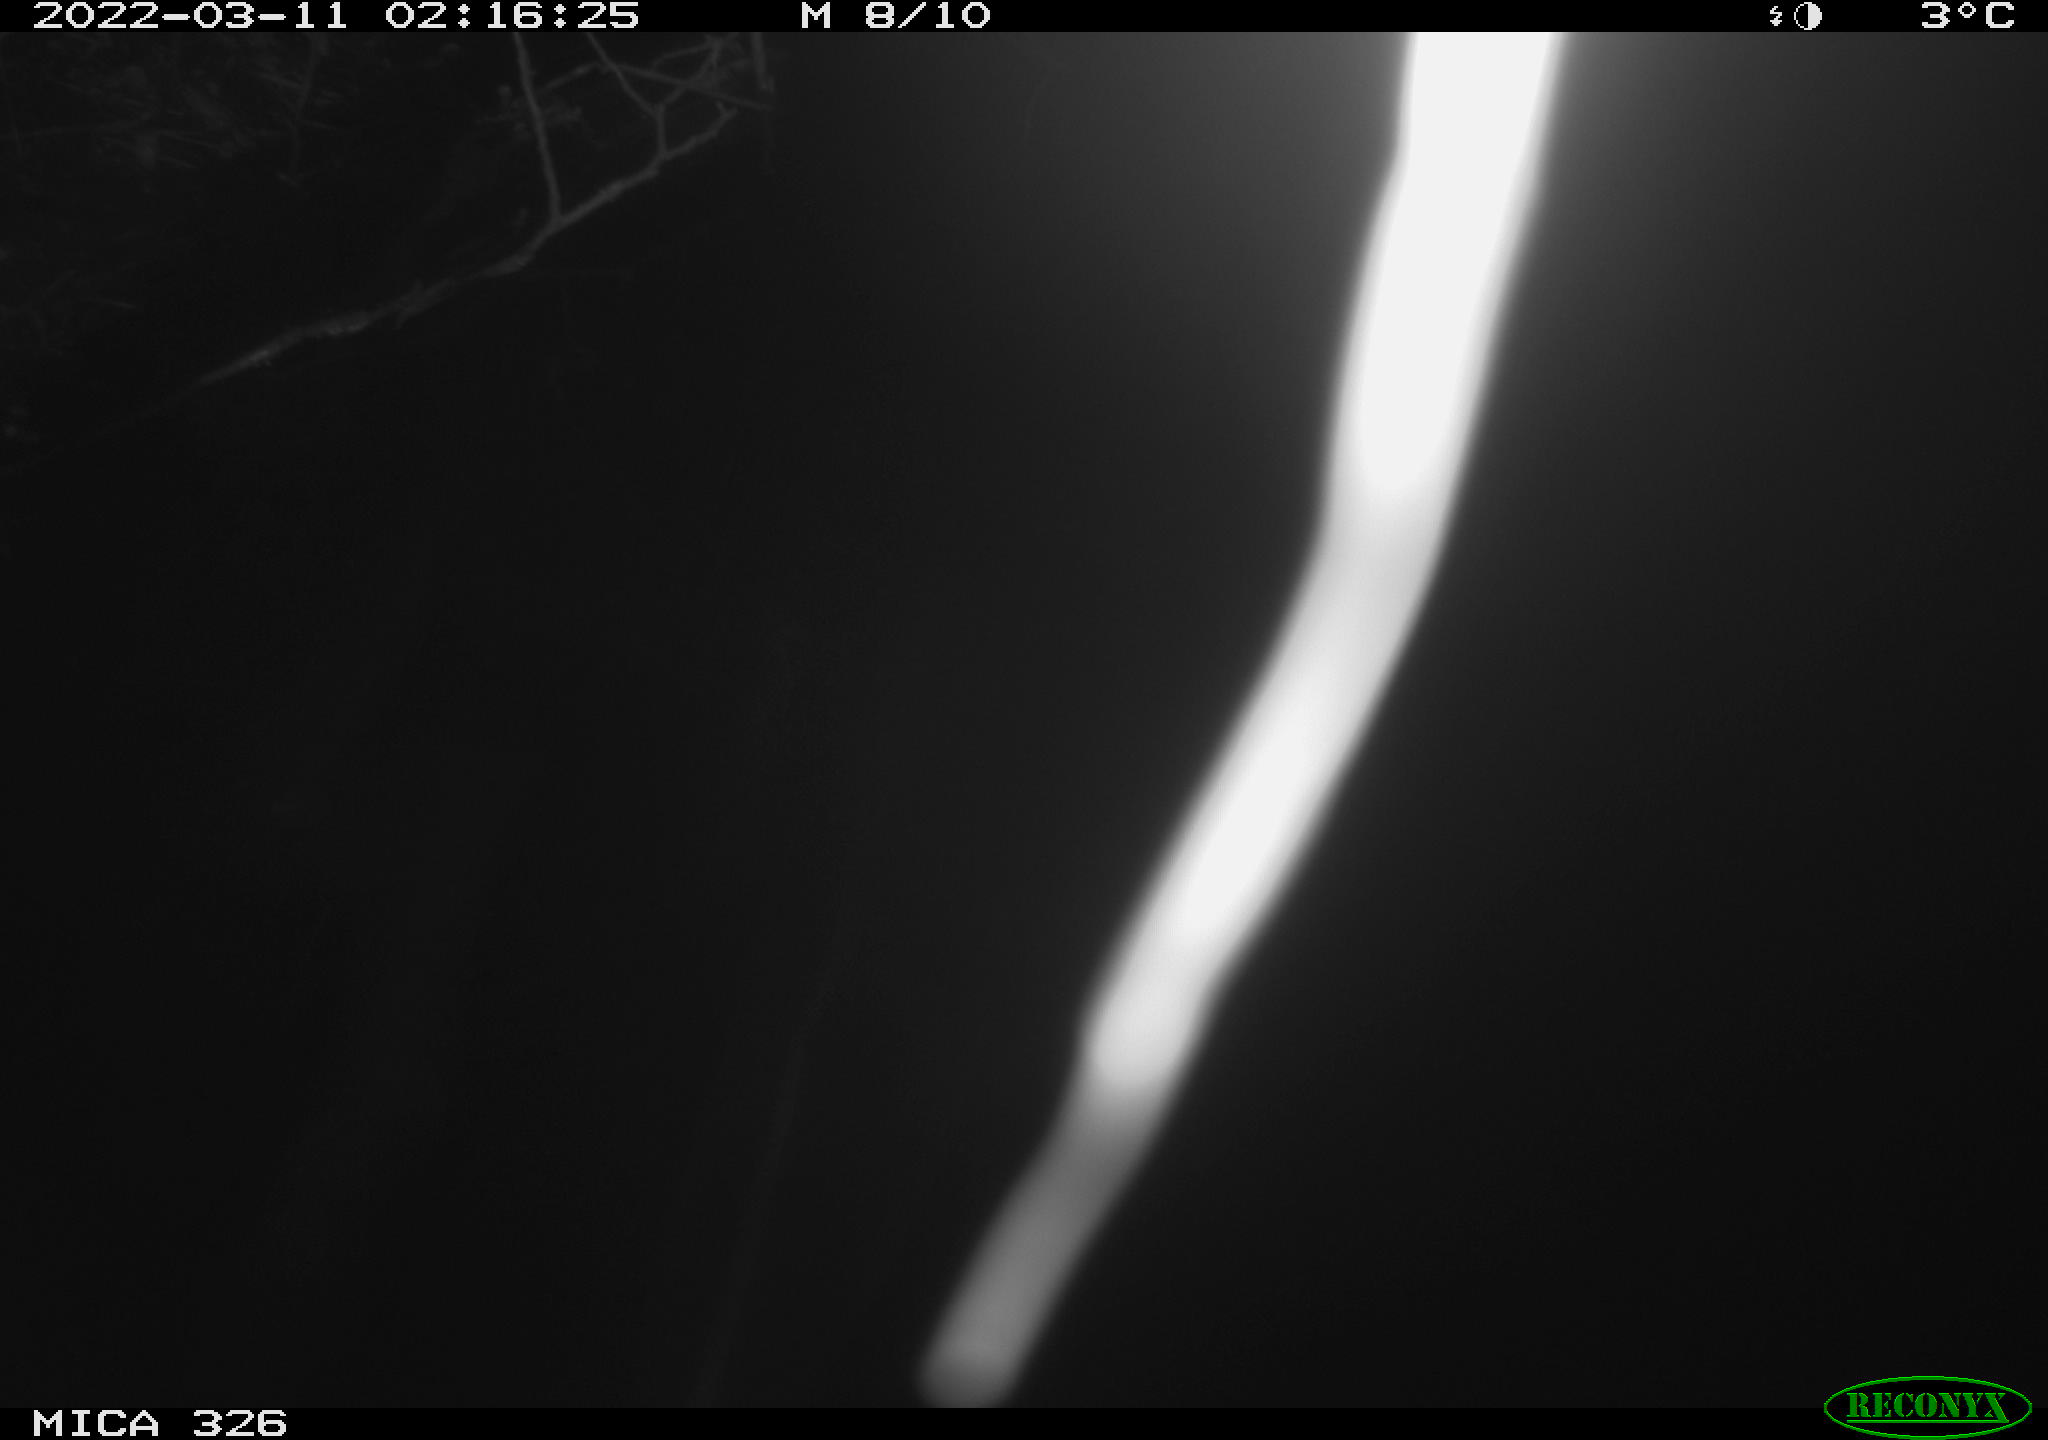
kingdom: Animalia
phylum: Chordata
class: Mammalia
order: Rodentia
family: Cricetidae
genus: Ondatra
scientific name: Ondatra zibethicus
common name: Muskrat
